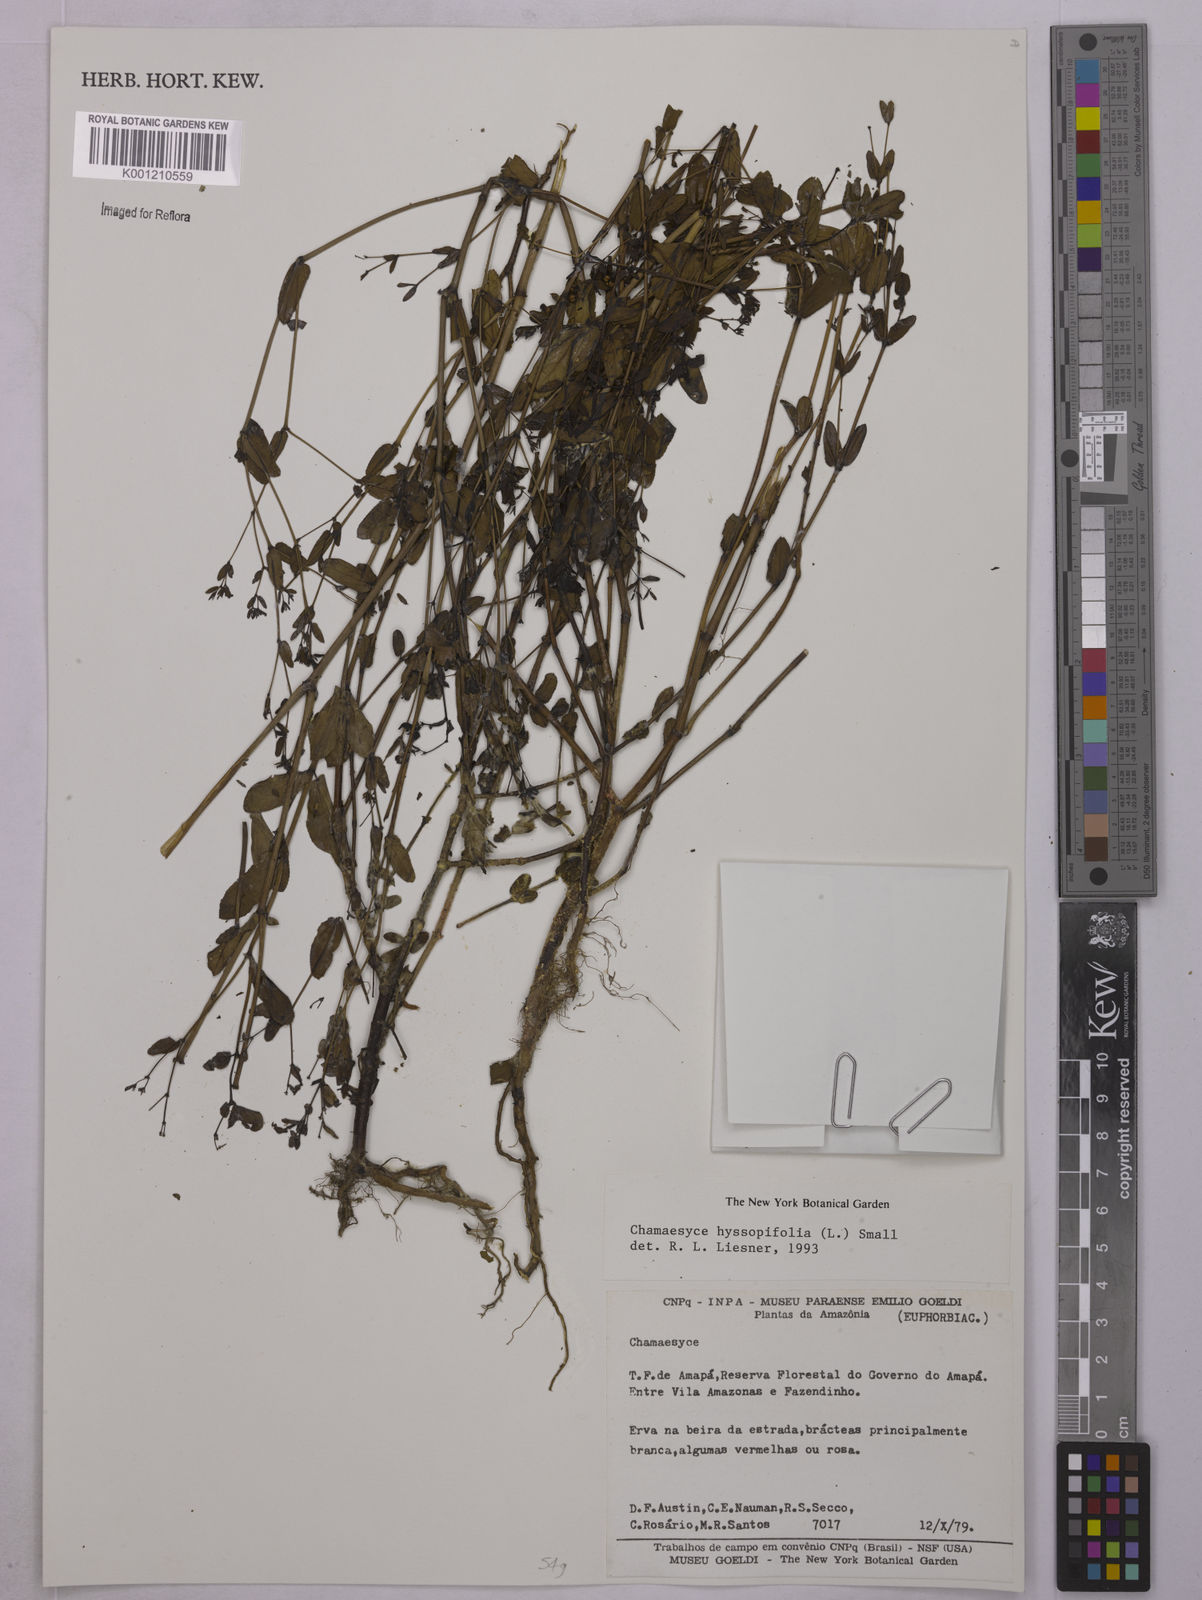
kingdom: Plantae
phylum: Tracheophyta
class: Magnoliopsida
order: Malpighiales
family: Euphorbiaceae
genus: Euphorbia
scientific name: Euphorbia hyssopifolia
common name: Hyssopleaf sandmat
